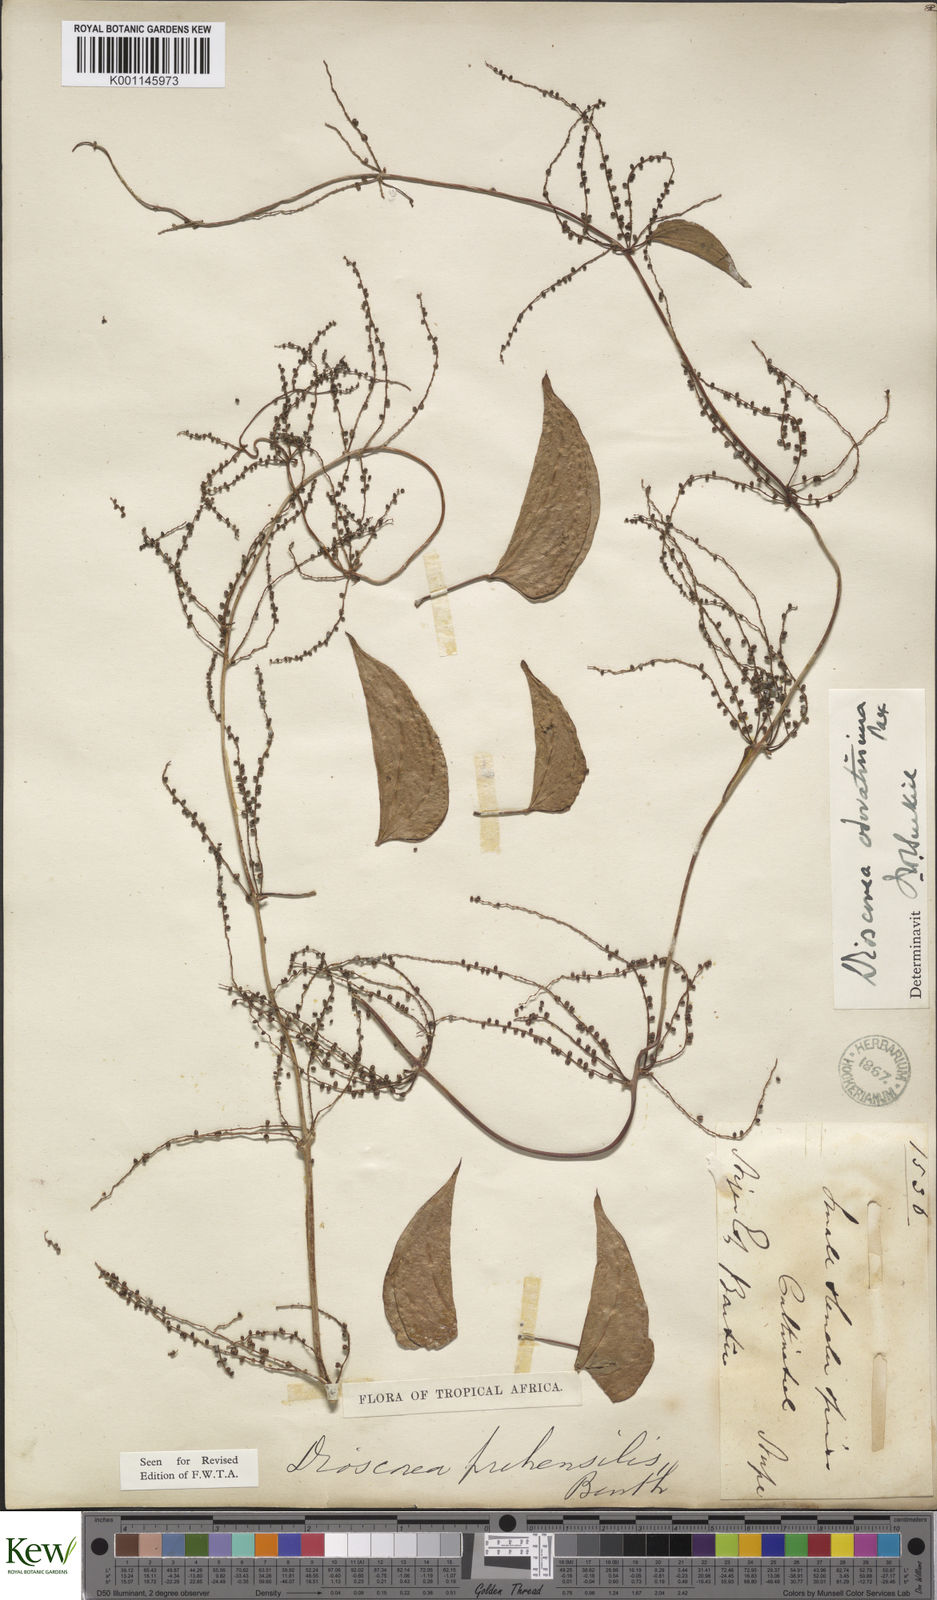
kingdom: Plantae
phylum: Tracheophyta
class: Liliopsida
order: Dioscoreales
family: Dioscoreaceae
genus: Dioscorea
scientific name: Dioscorea praehensilis
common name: Bush yam
